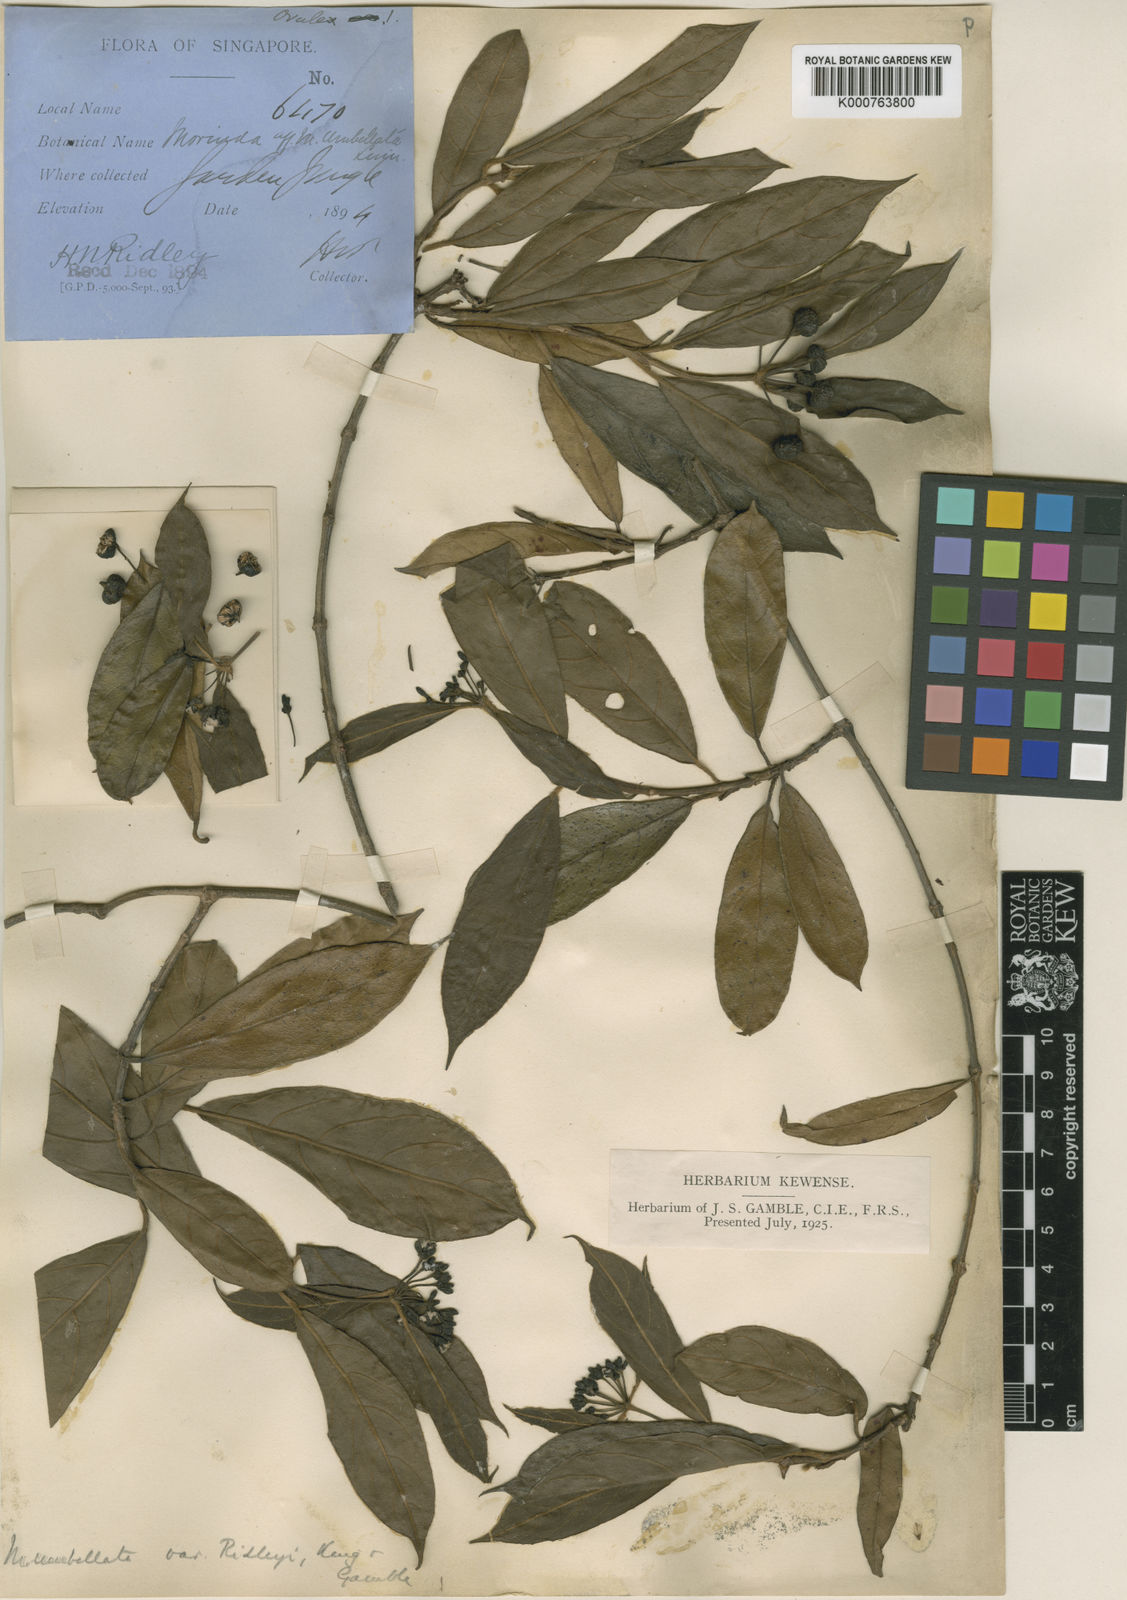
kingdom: Plantae
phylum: Tracheophyta
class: Magnoliopsida
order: Gentianales
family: Rubiaceae
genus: Gynochthodes
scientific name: Gynochthodes ridleyi
